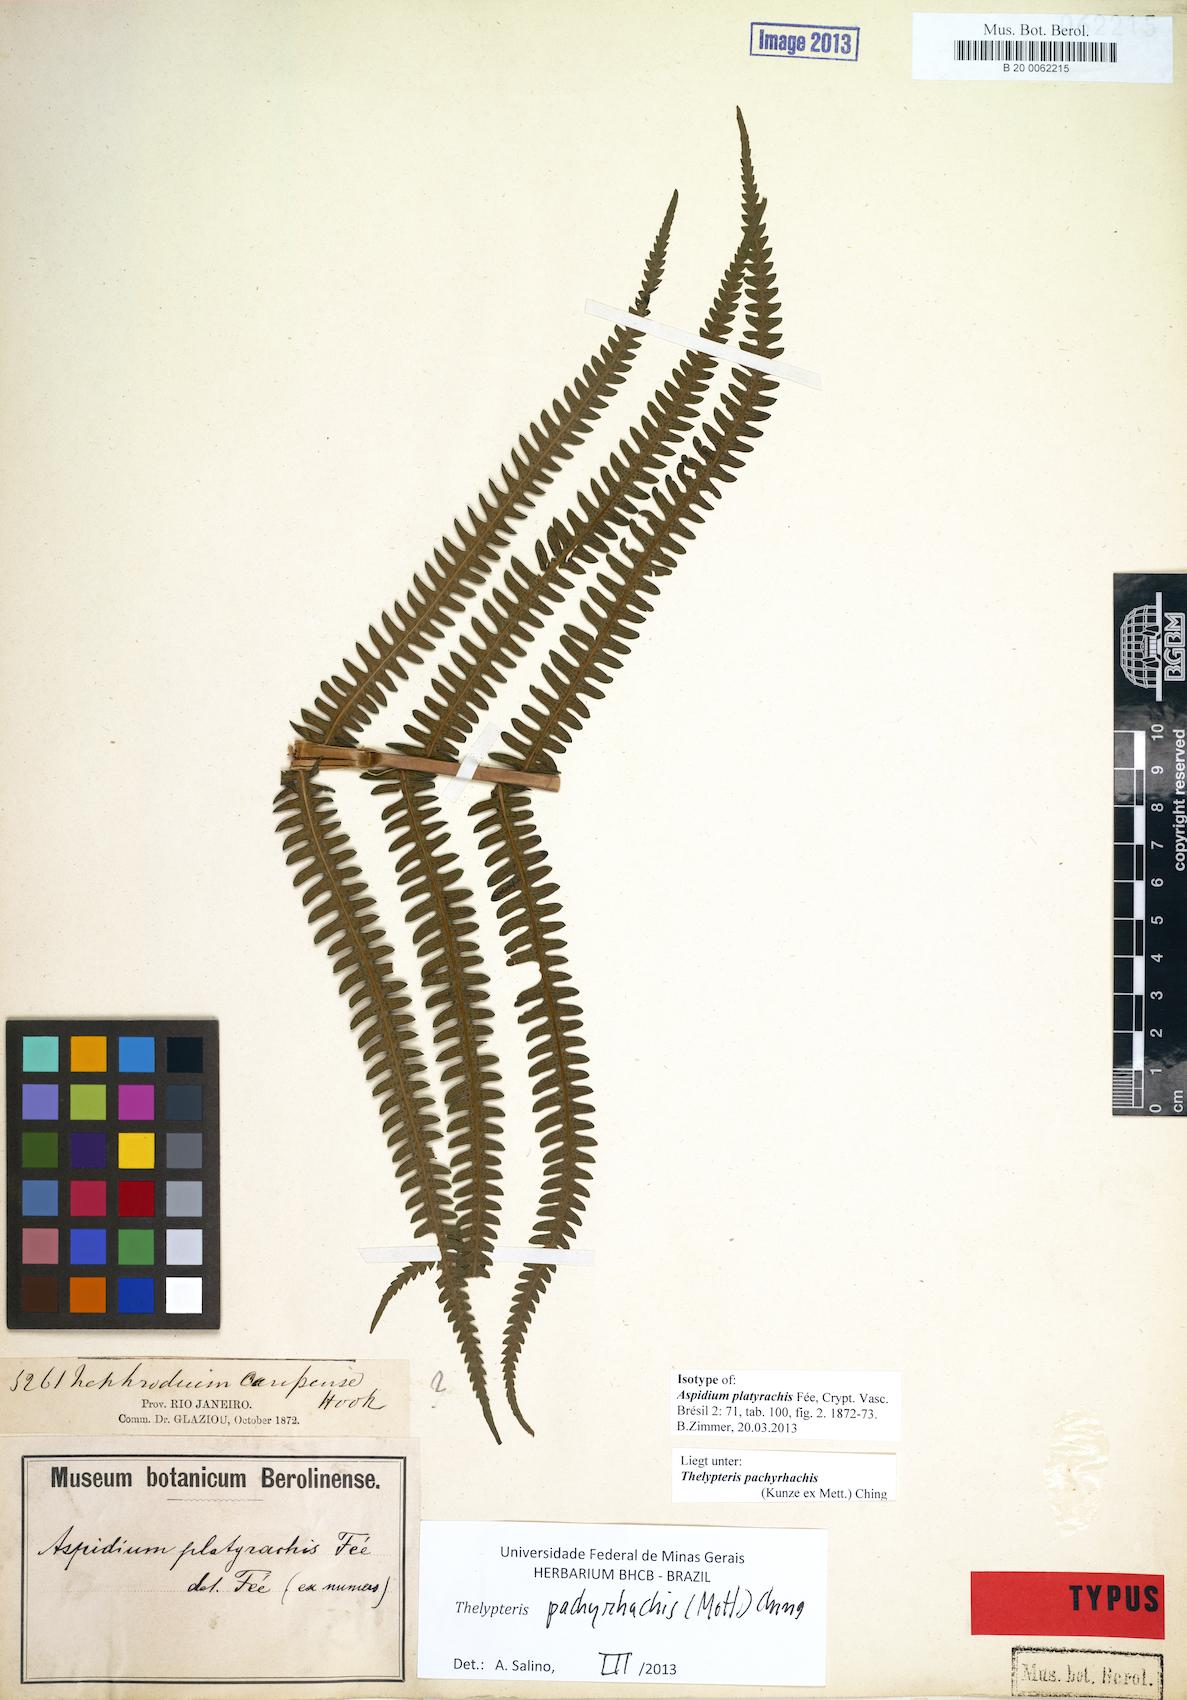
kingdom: Plantae
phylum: Tracheophyta
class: Polypodiopsida
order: Polypodiales
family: Thelypteridaceae
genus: Amauropelta
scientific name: Amauropelta pachyrhachis
